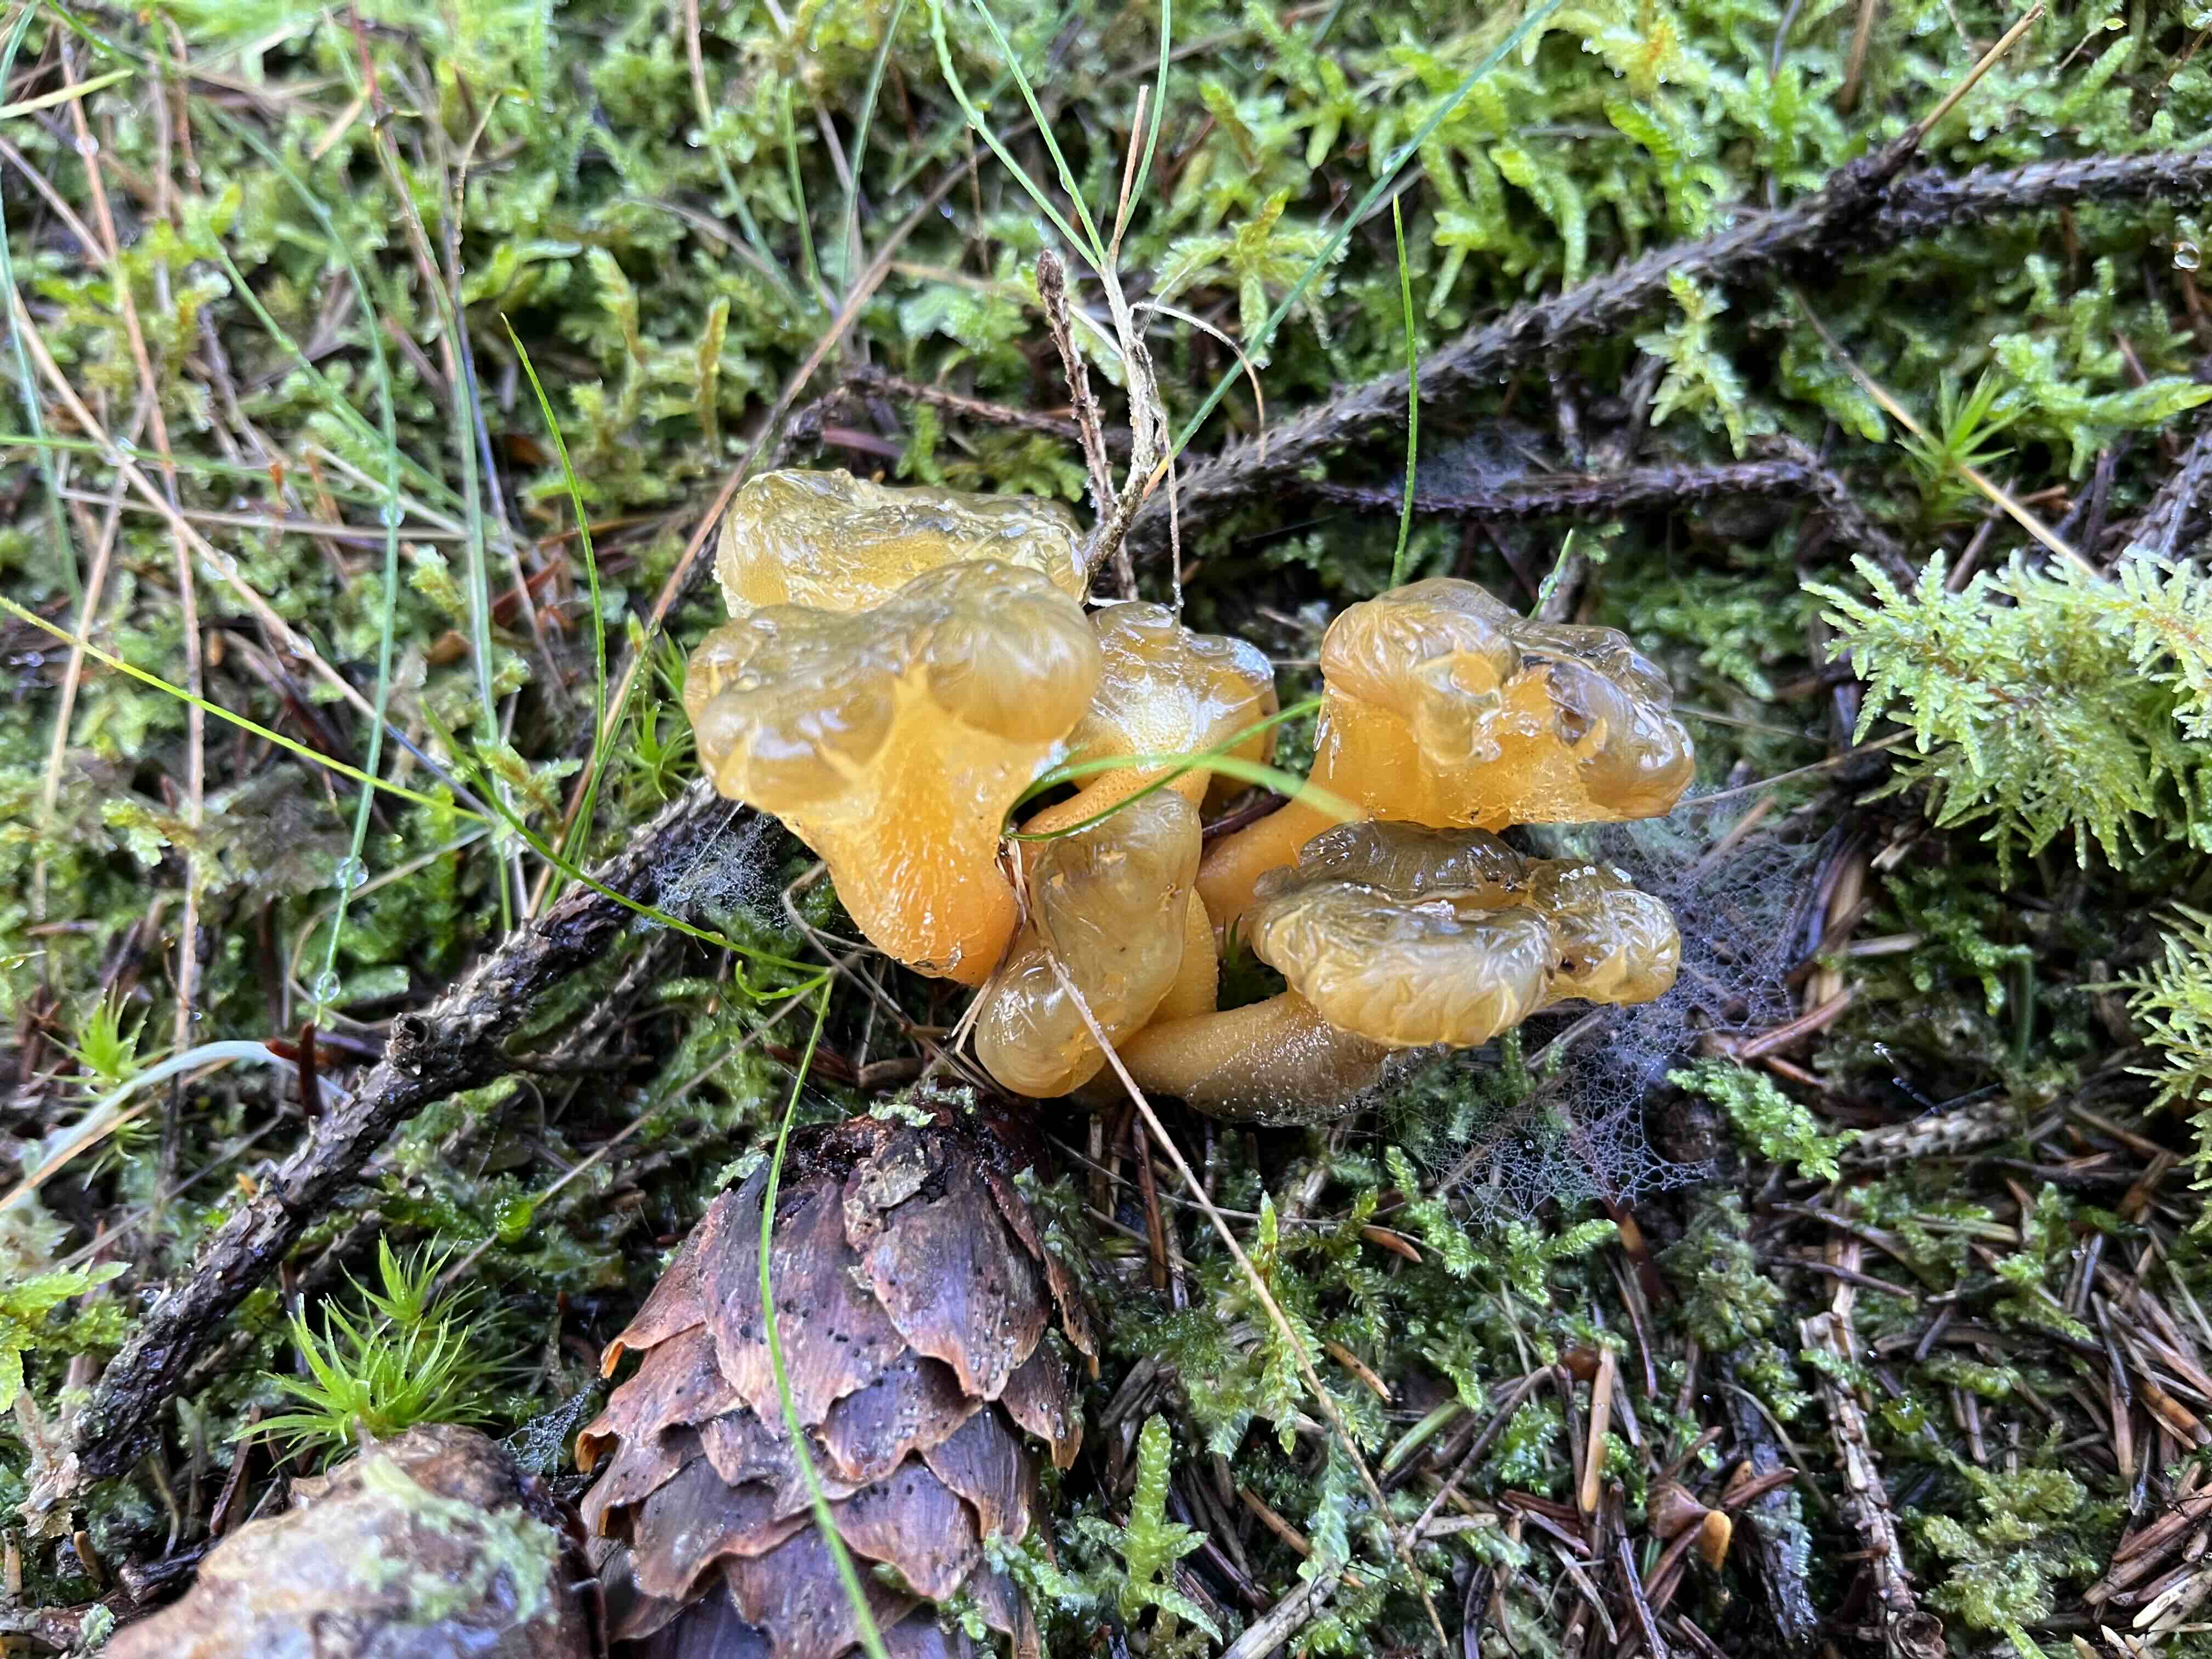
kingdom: Fungi
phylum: Ascomycota
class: Leotiomycetes
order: Leotiales
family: Leotiaceae
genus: Leotia
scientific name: Leotia lubrica
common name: ravsvamp
